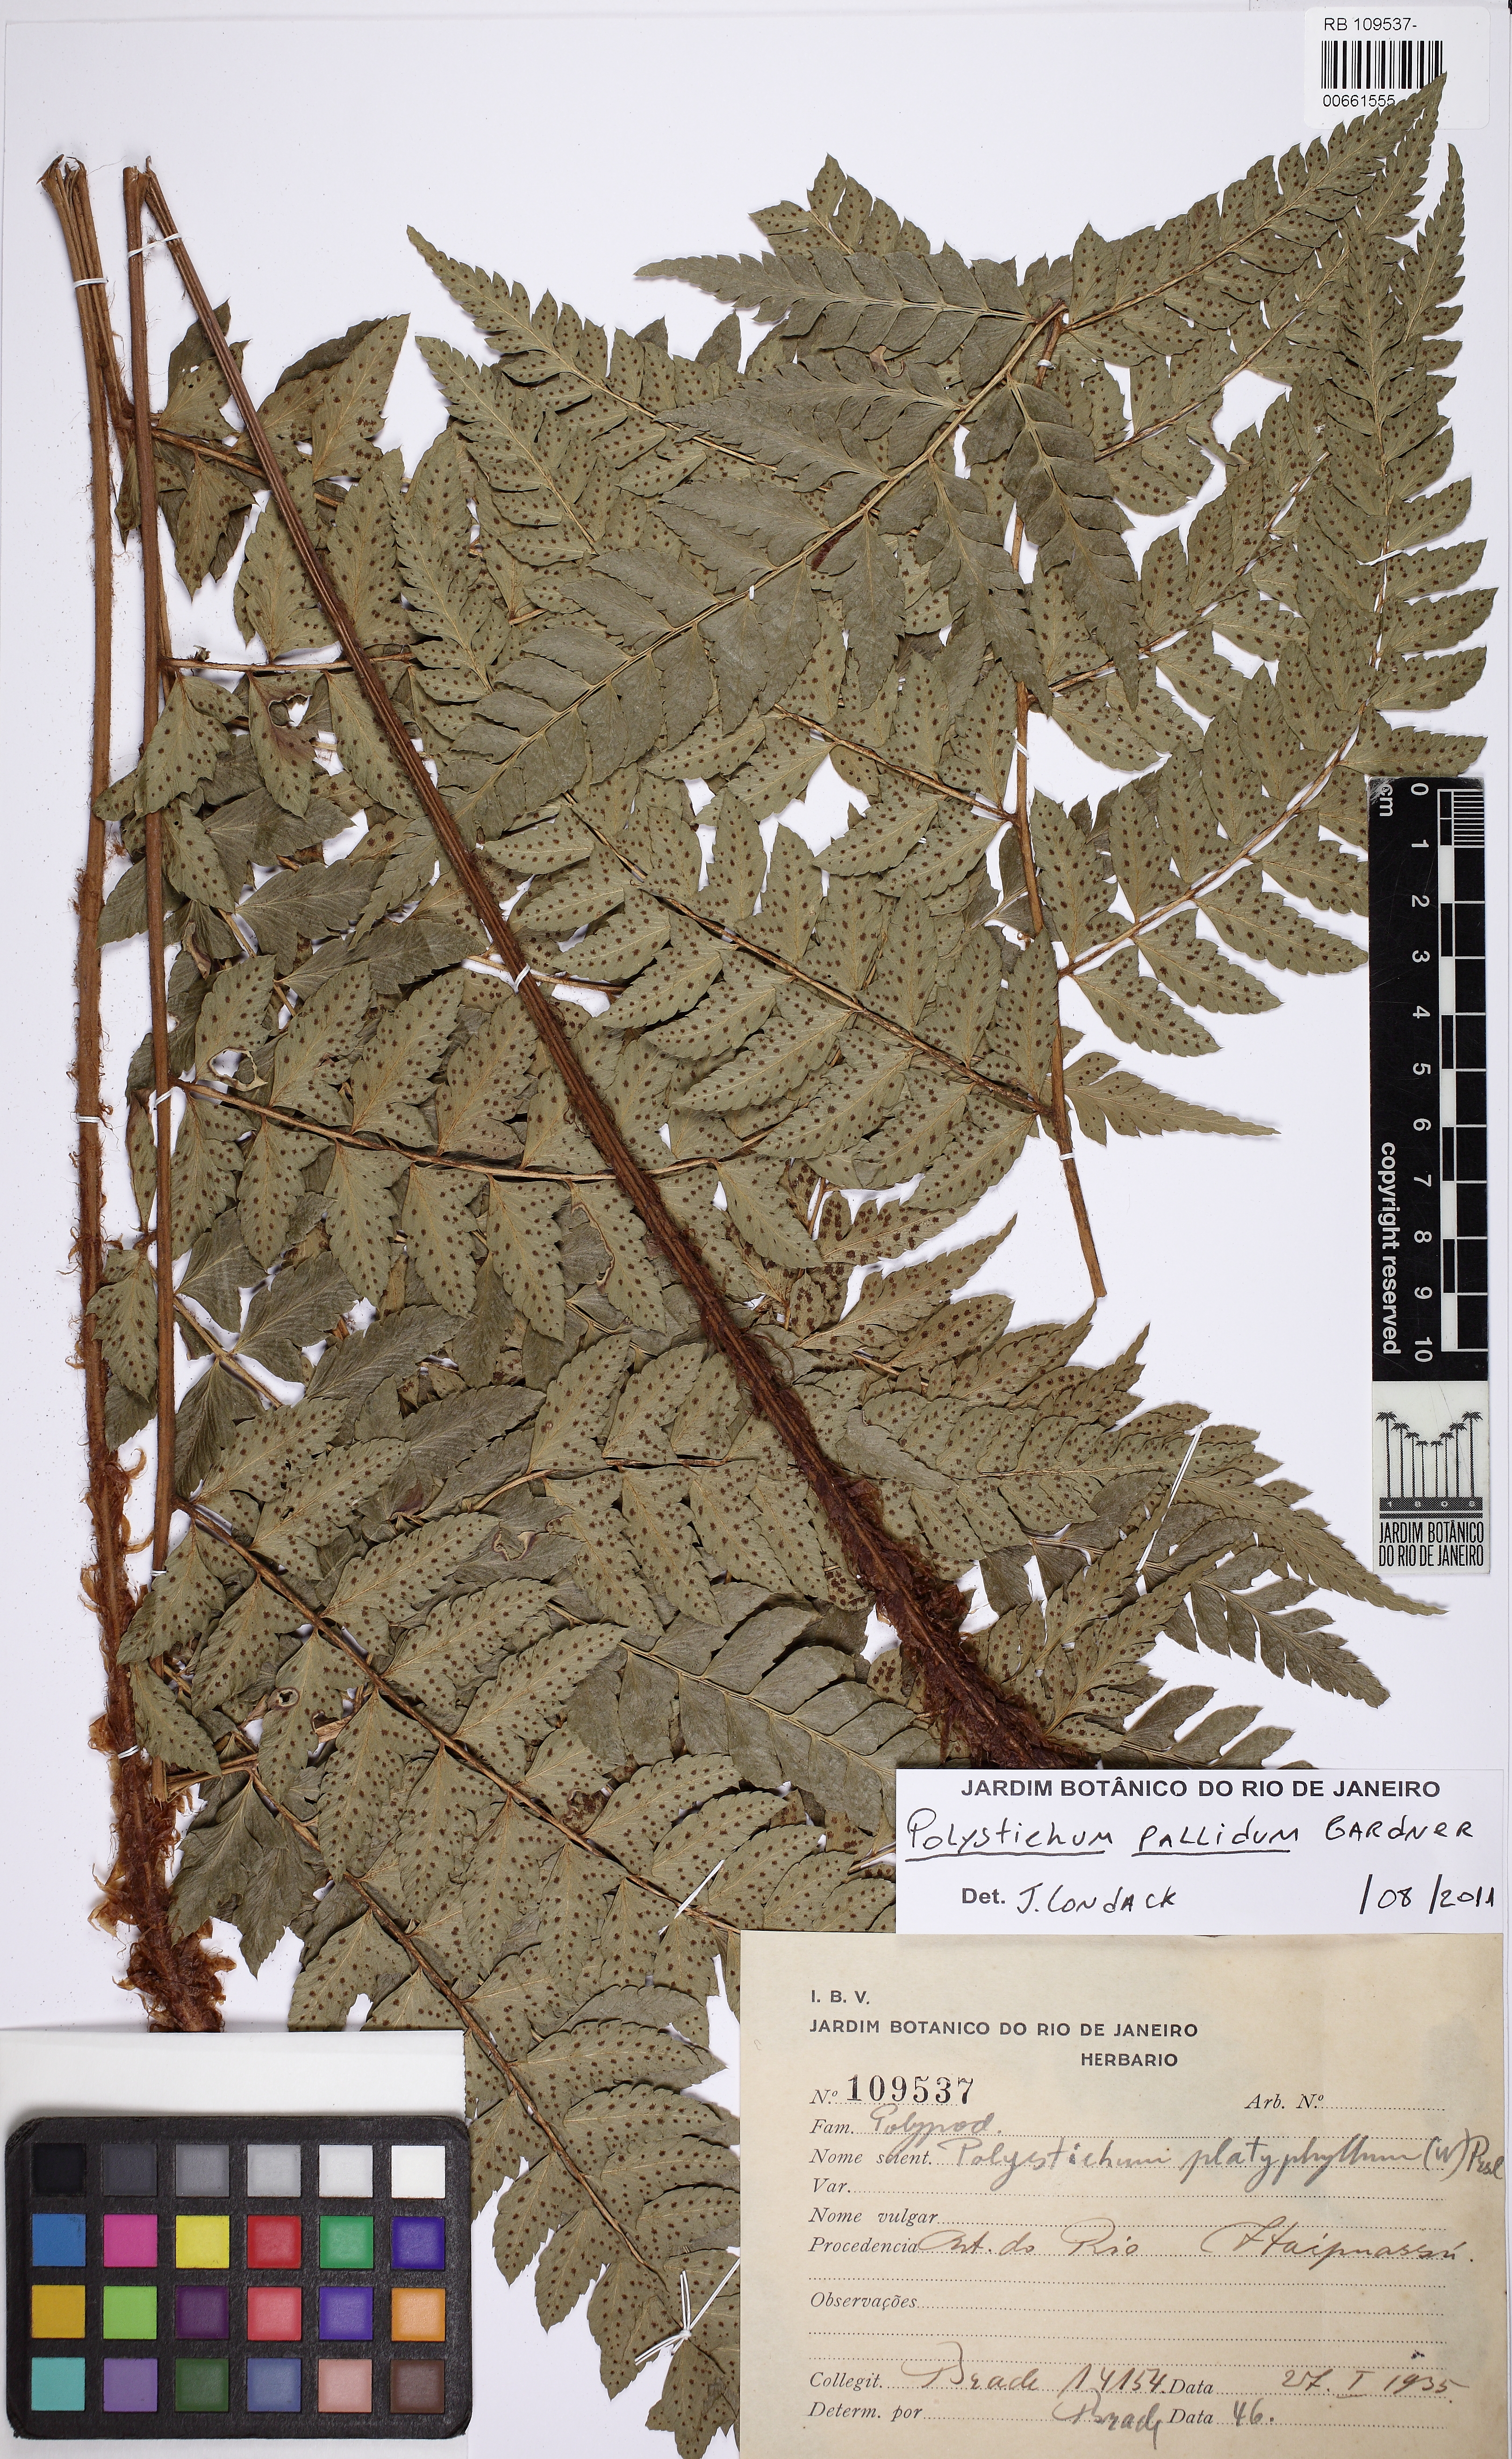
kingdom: Plantae
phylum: Tracheophyta
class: Polypodiopsida
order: Polypodiales
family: Dryopteridaceae
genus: Polystichum
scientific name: Polystichum platyphyllum
